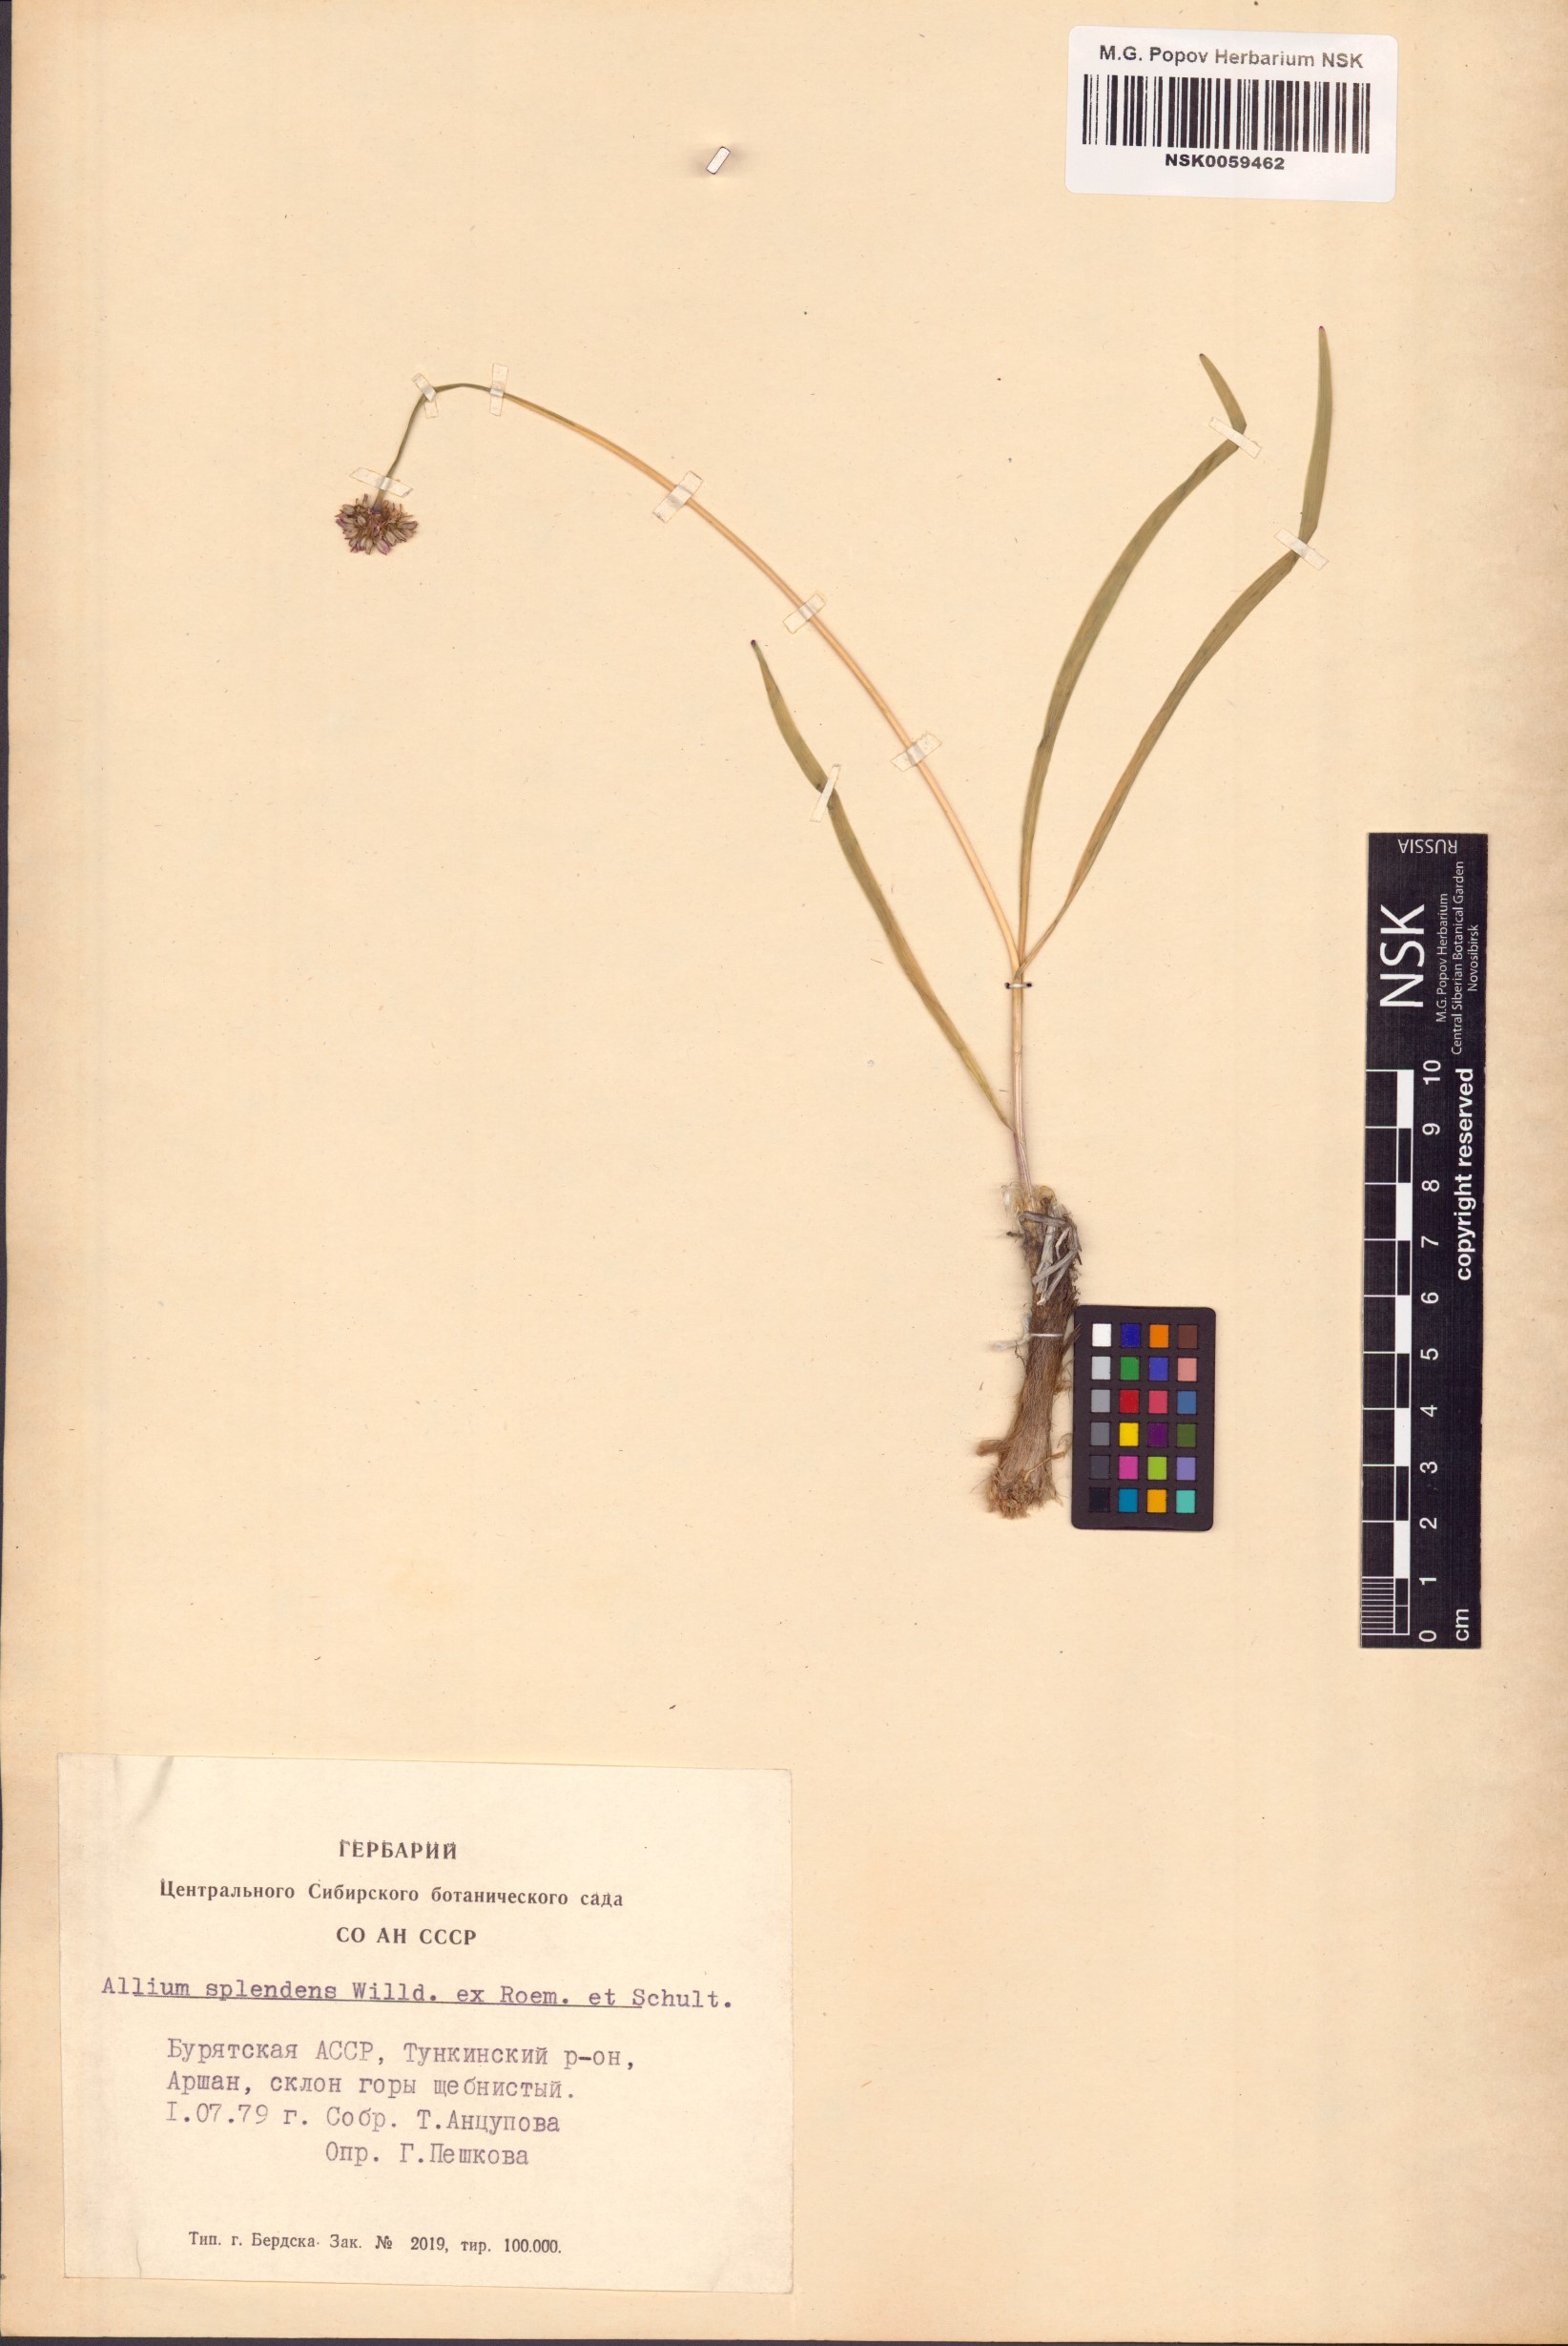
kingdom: Plantae
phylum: Tracheophyta
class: Liliopsida
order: Asparagales
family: Amaryllidaceae
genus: Allium
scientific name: Allium splendens
